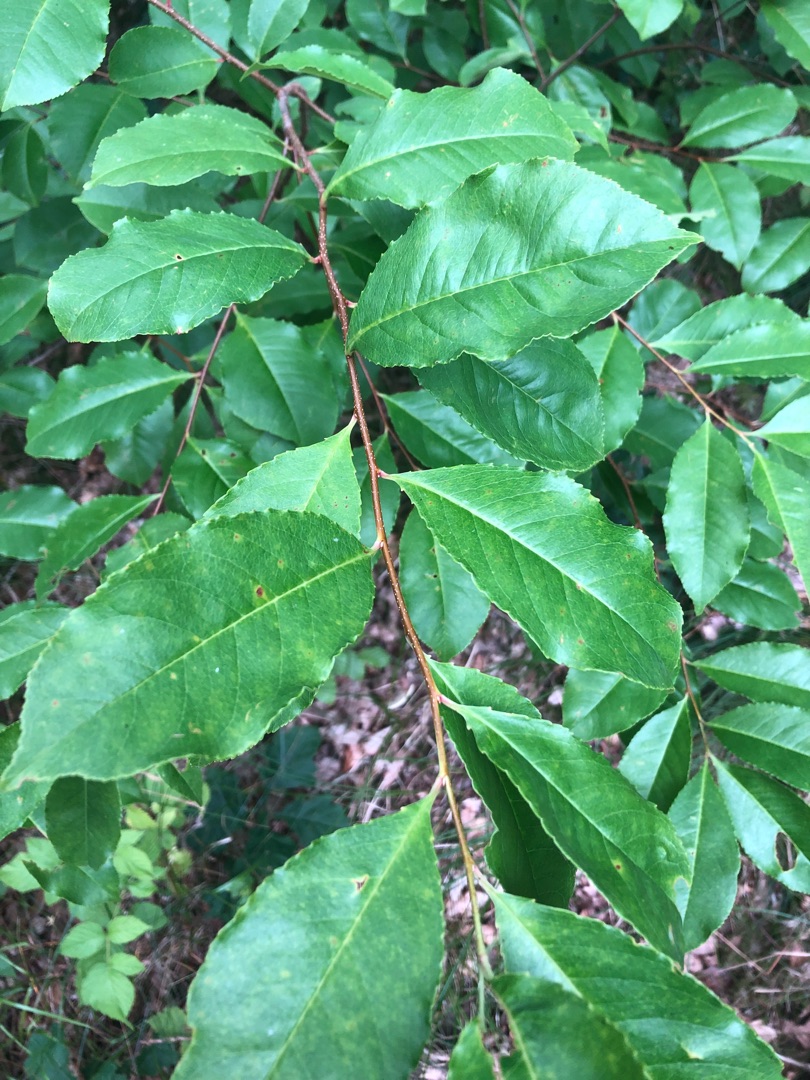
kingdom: Plantae
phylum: Tracheophyta
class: Magnoliopsida
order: Rosales
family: Rosaceae
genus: Prunus
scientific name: Prunus serotina
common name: Glansbladet hæg
